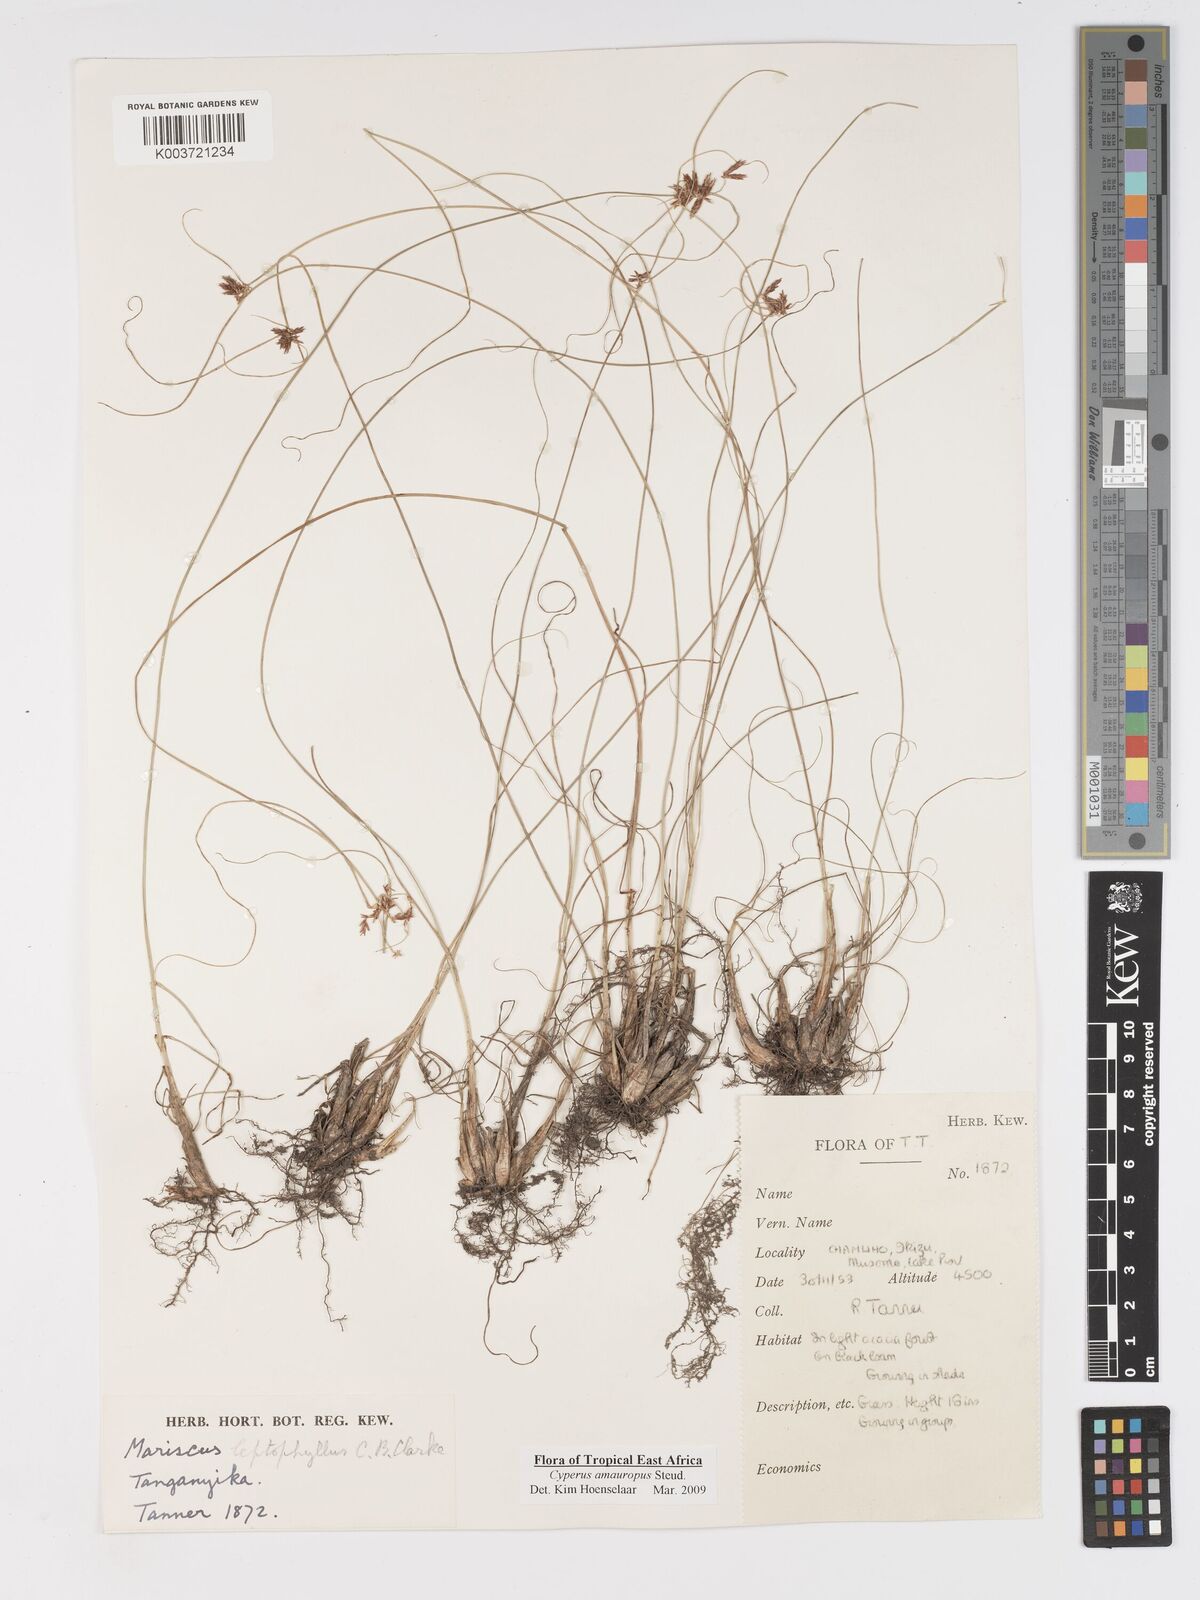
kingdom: Plantae
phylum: Tracheophyta
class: Liliopsida
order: Poales
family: Cyperaceae
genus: Cyperus
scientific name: Cyperus amauropus
